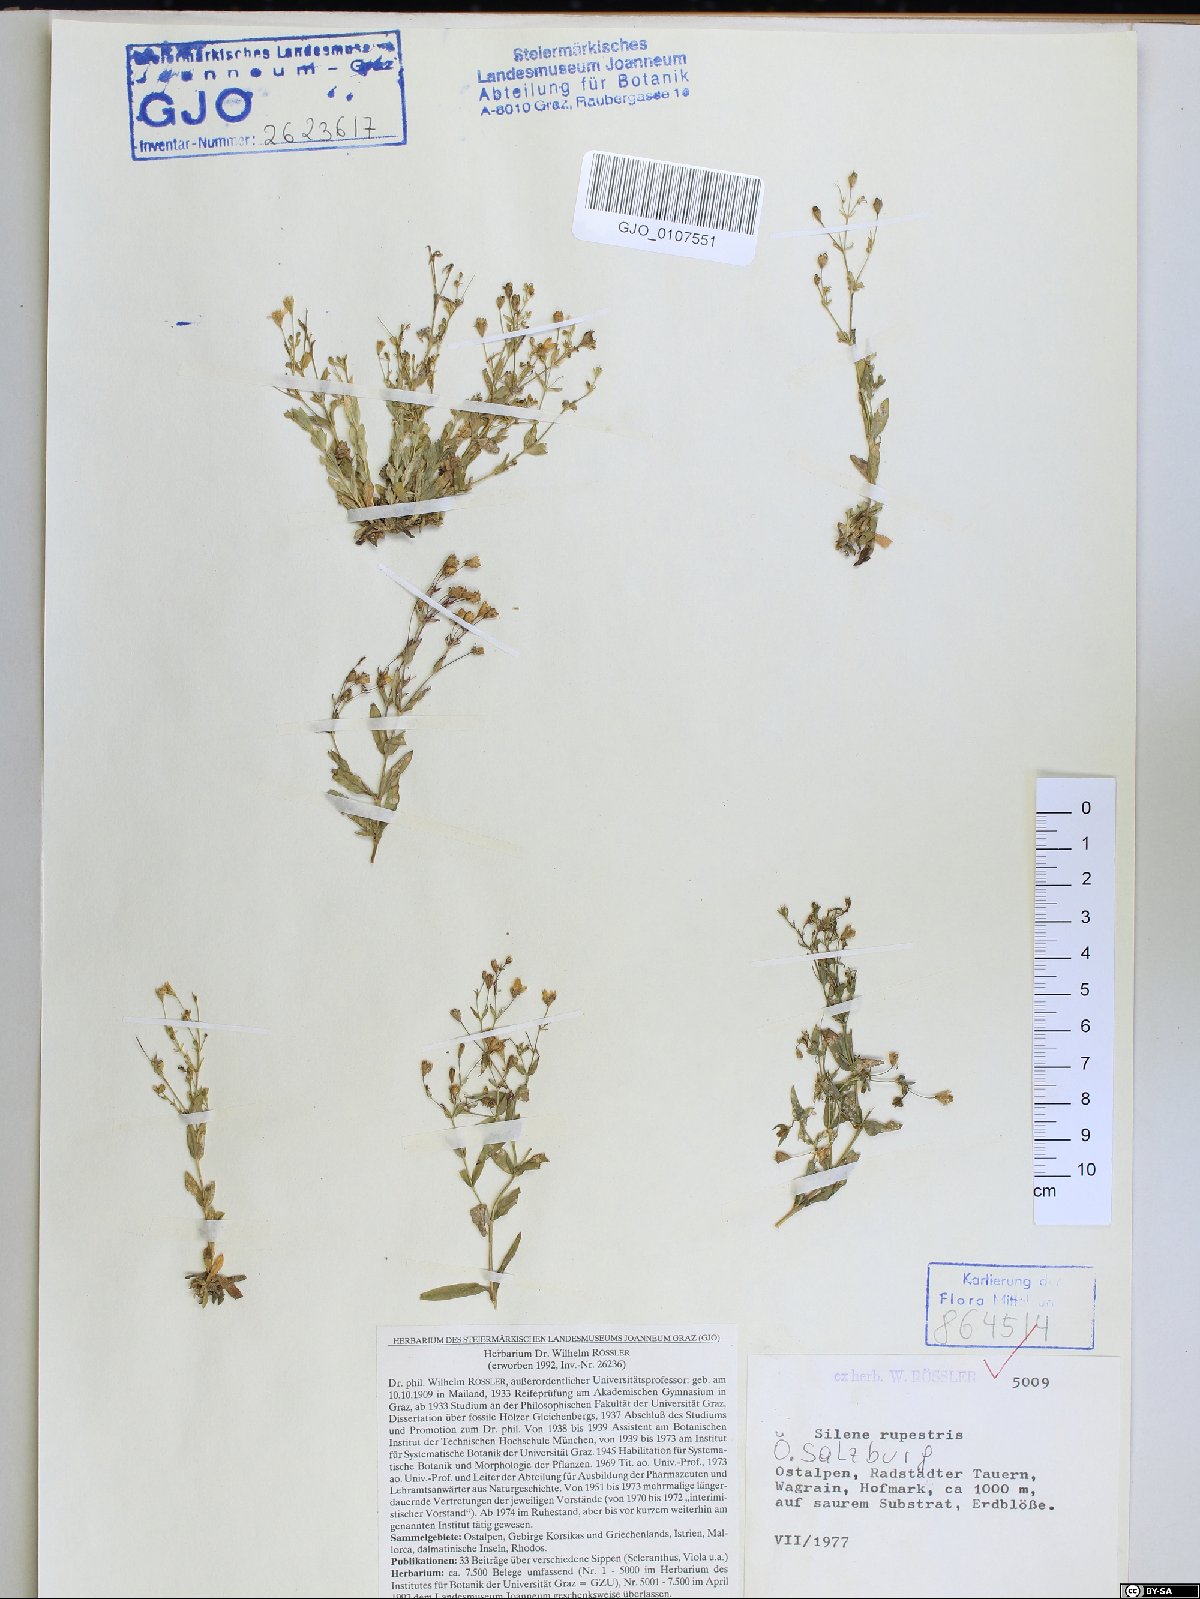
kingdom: Plantae
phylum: Tracheophyta
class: Magnoliopsida
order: Caryophyllales
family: Caryophyllaceae
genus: Atocion
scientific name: Atocion rupestre
